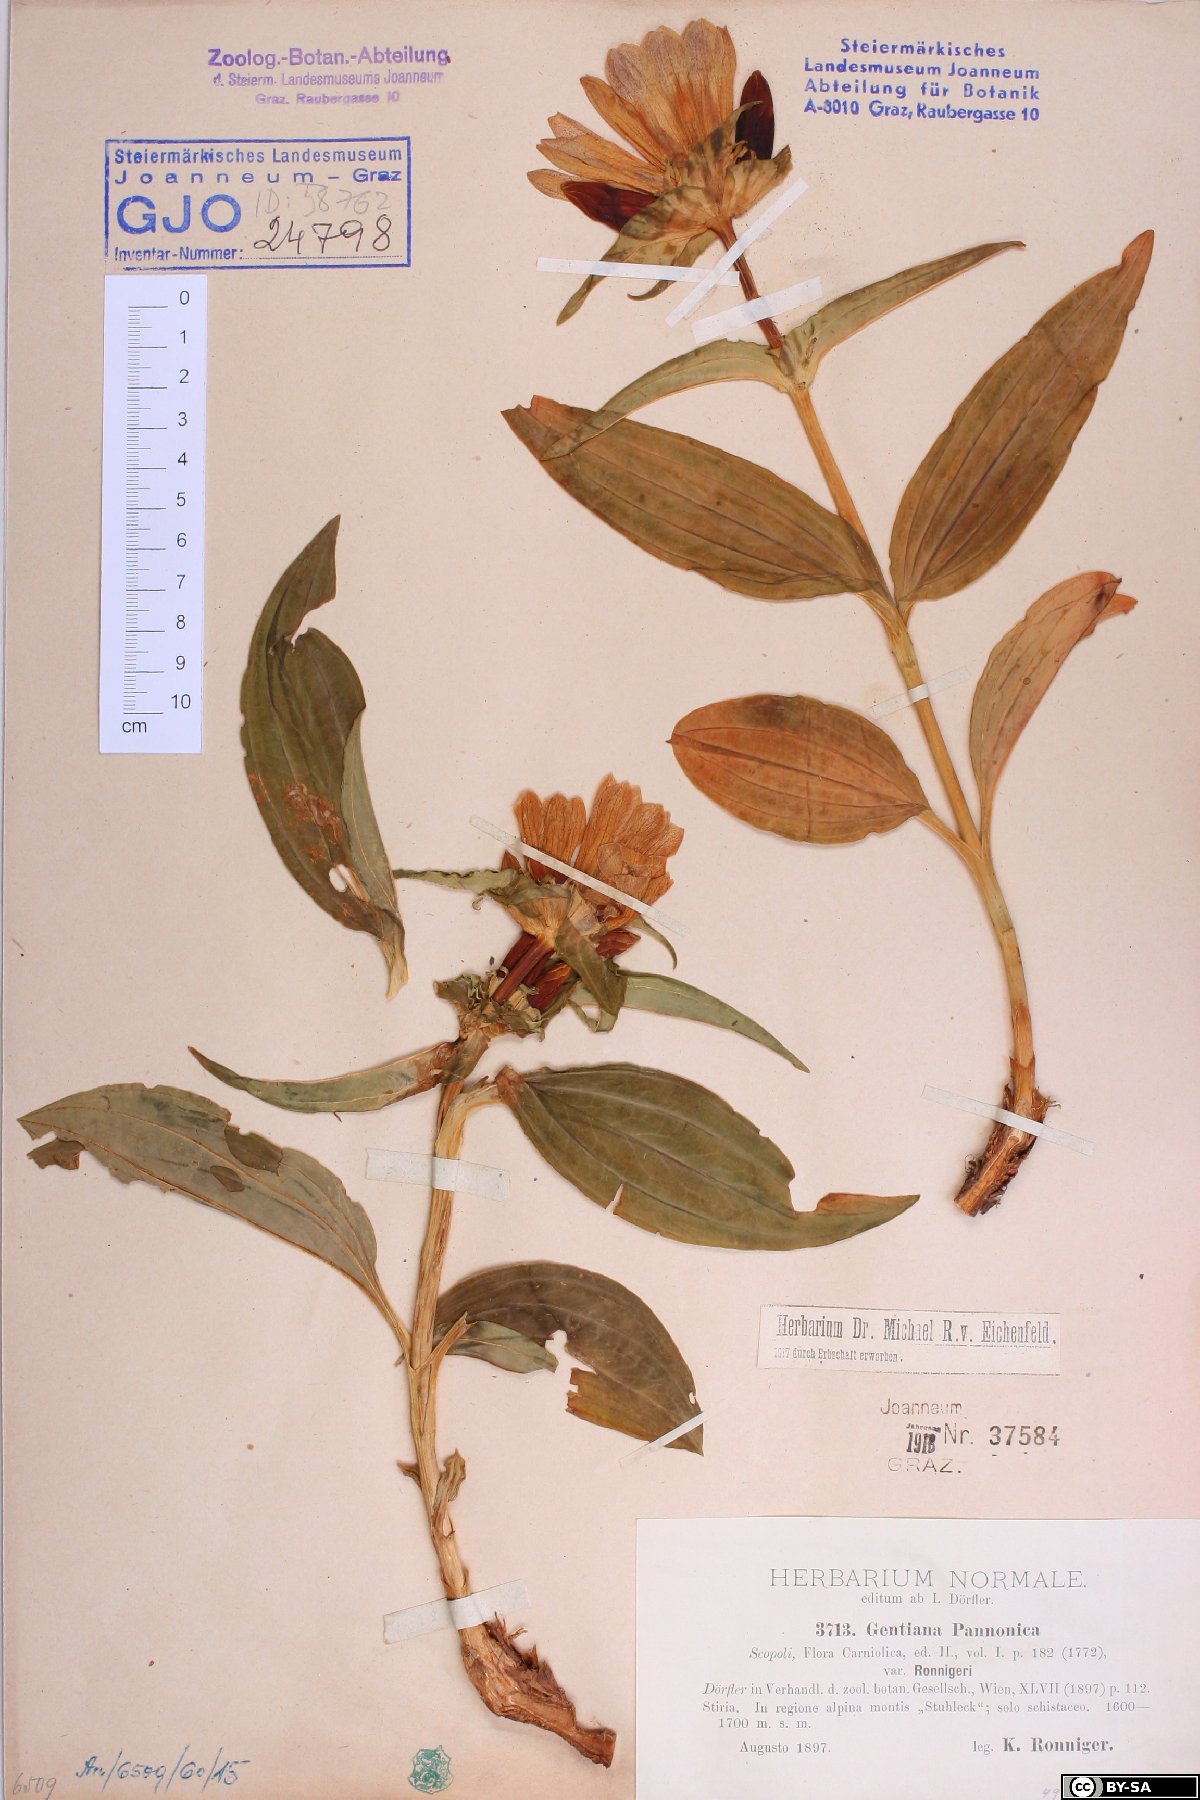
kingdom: Plantae
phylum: Tracheophyta
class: Magnoliopsida
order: Gentianales
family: Gentianaceae
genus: Gentiana
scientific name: Gentiana pannonica
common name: Hungarian gentian
